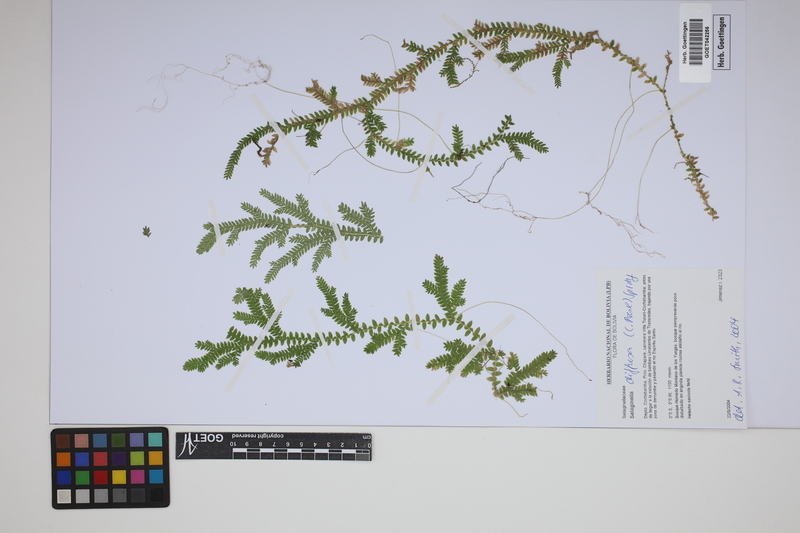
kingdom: Plantae
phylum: Tracheophyta
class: Lycopodiopsida
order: Selaginellales
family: Selaginellaceae
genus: Selaginella
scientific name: Selaginella diffusa
